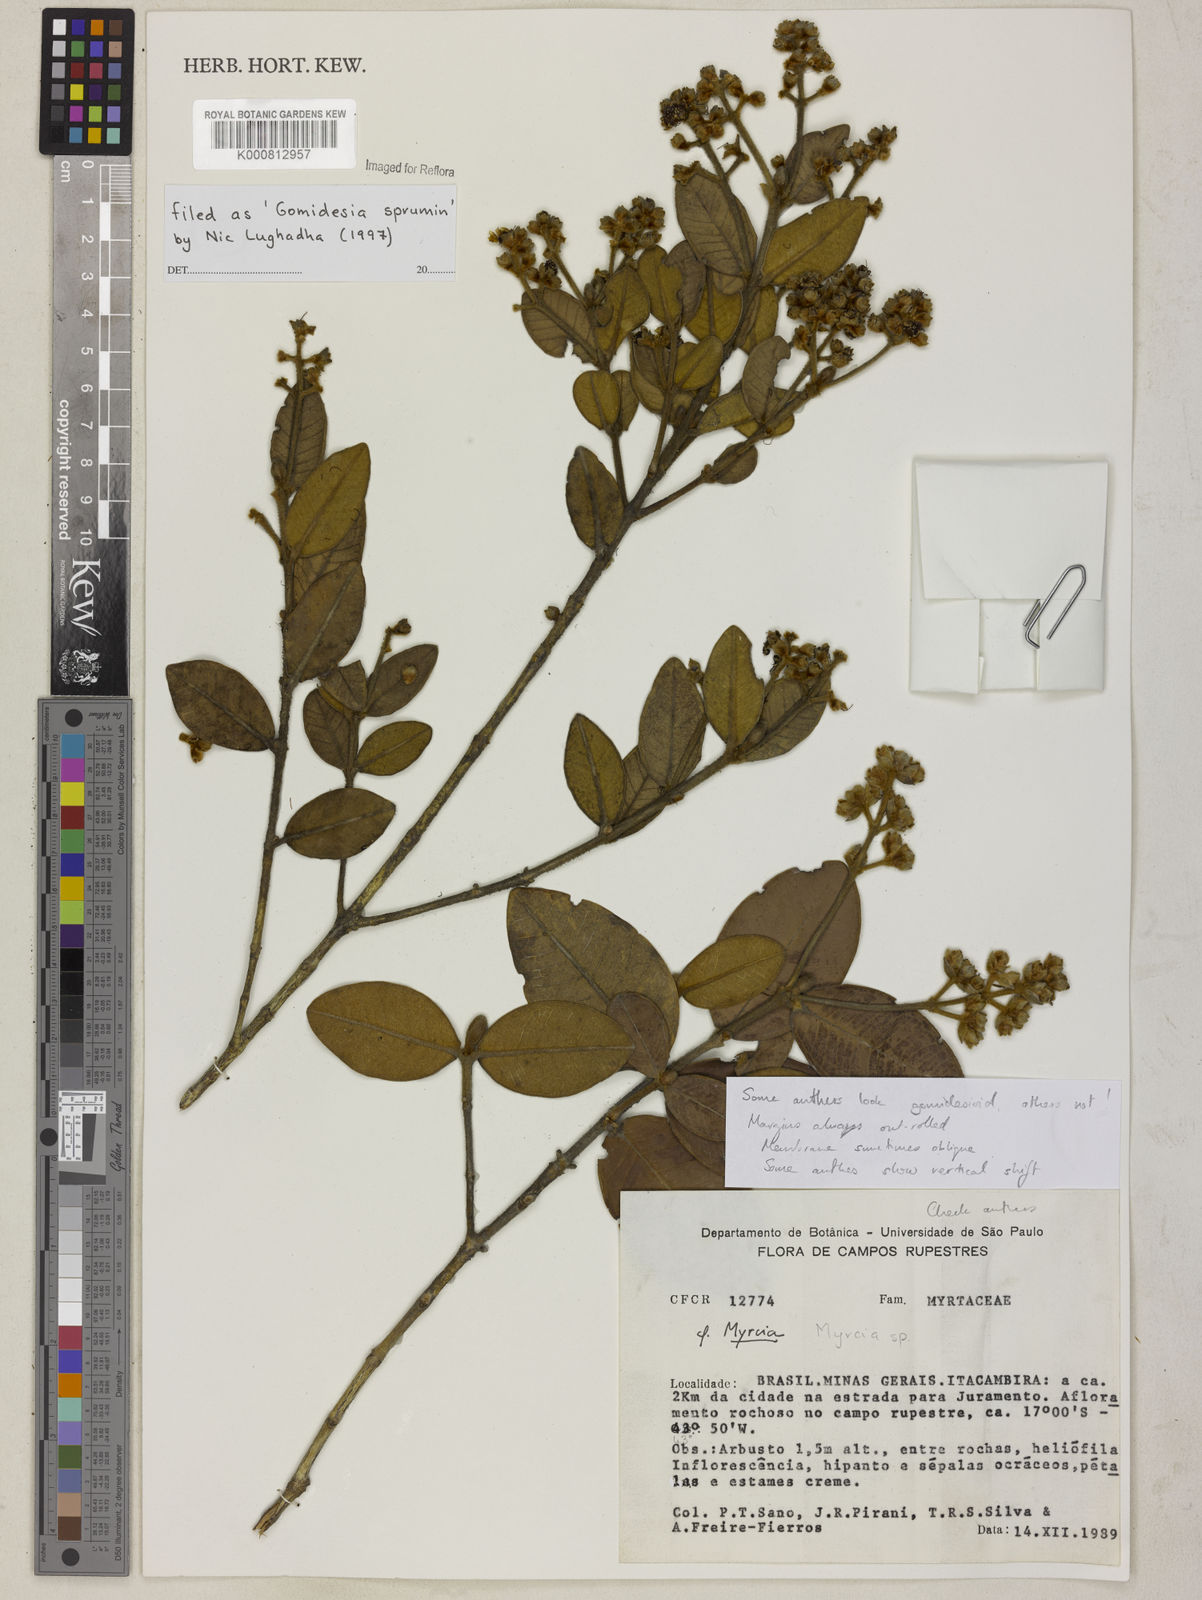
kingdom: Plantae
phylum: Tracheophyta
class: Magnoliopsida
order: Myrtales
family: Myrtaceae
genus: Myrcia
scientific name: Myrcia
